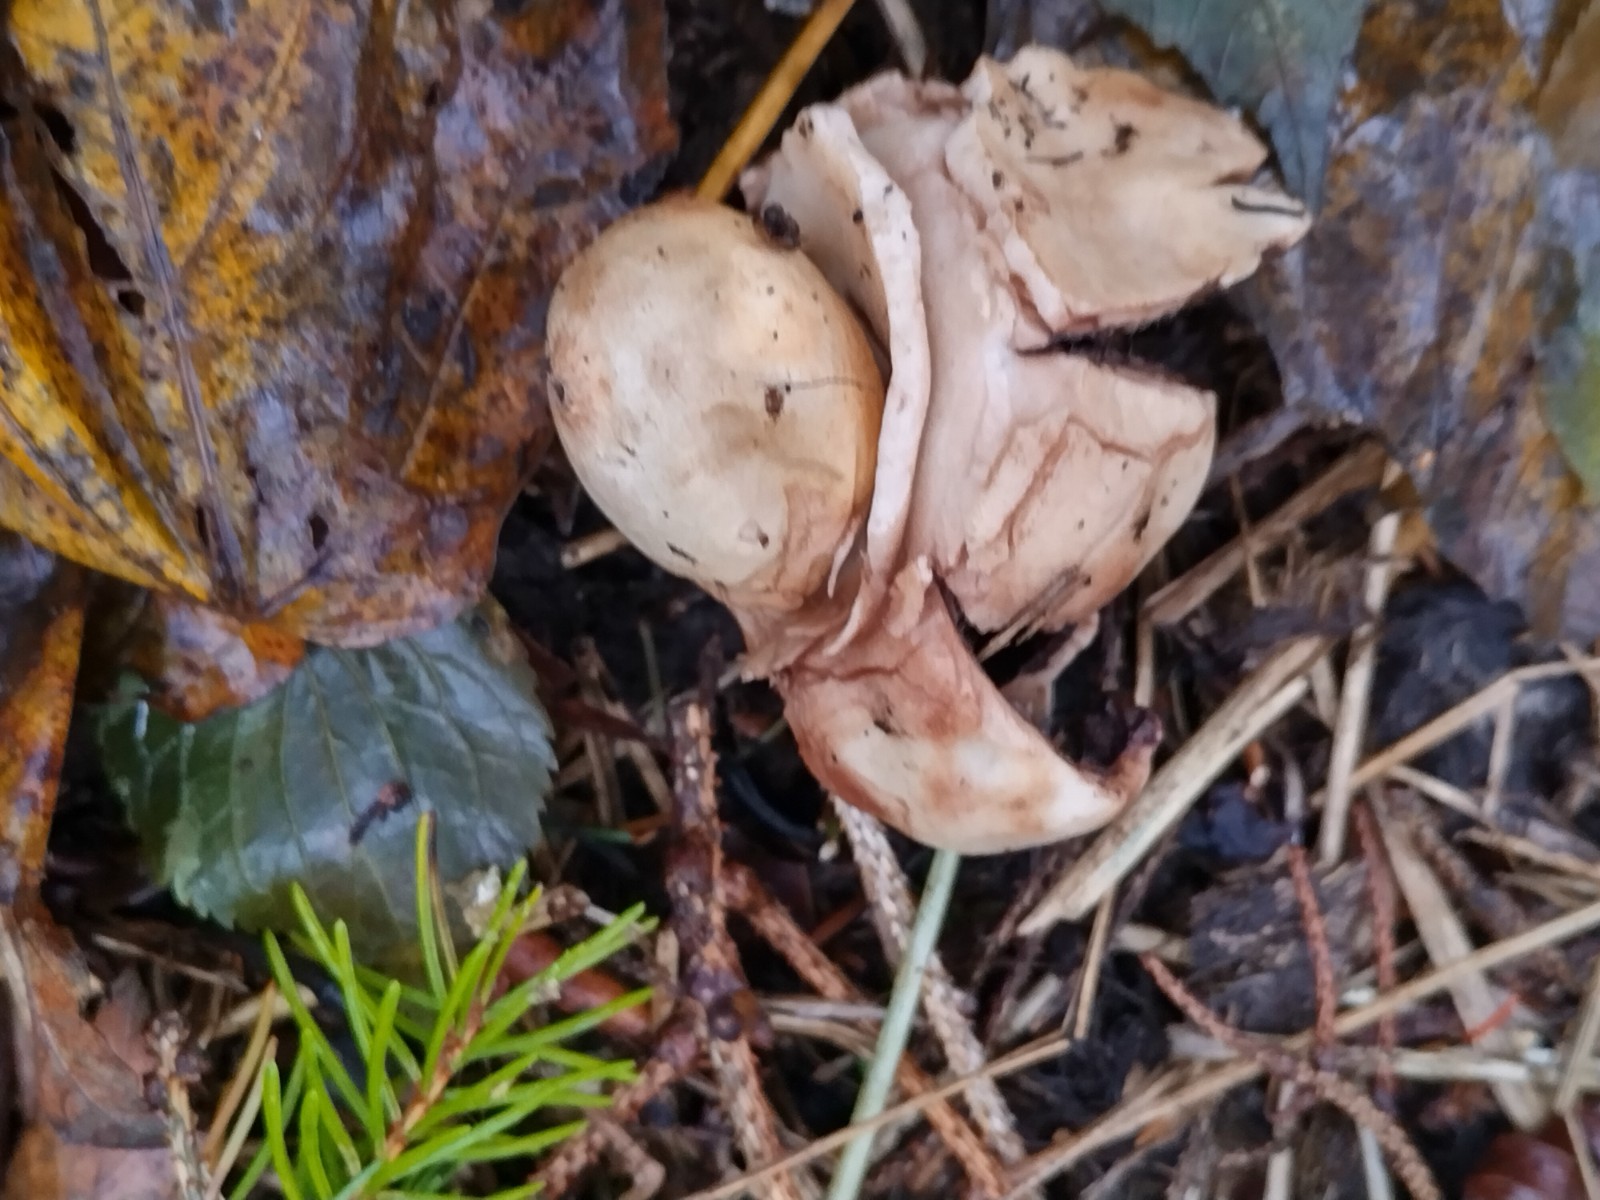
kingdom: Fungi
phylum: Basidiomycota
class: Agaricomycetes
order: Geastrales
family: Geastraceae
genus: Geastrum
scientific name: Geastrum michelianum
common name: kødet stjernebold
